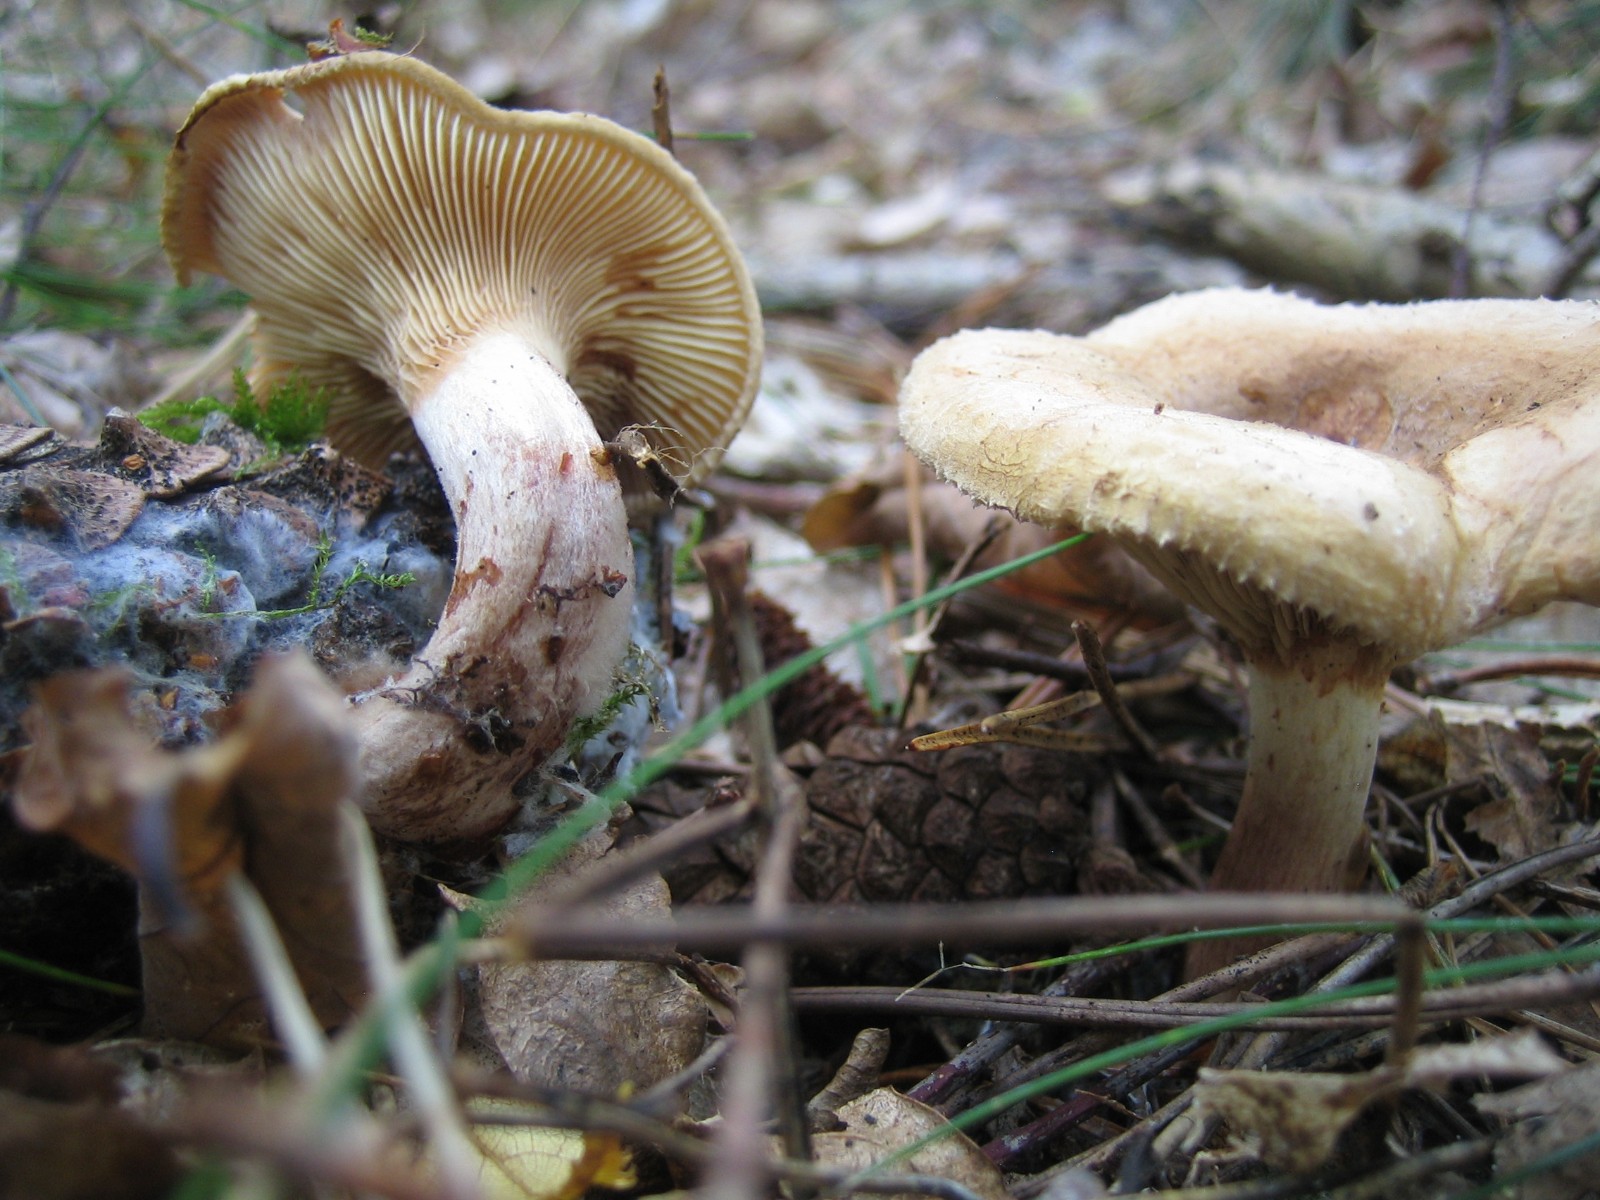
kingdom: Fungi
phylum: Basidiomycota
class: Agaricomycetes
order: Boletales
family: Paxillaceae
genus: Paxillus
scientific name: Paxillus
